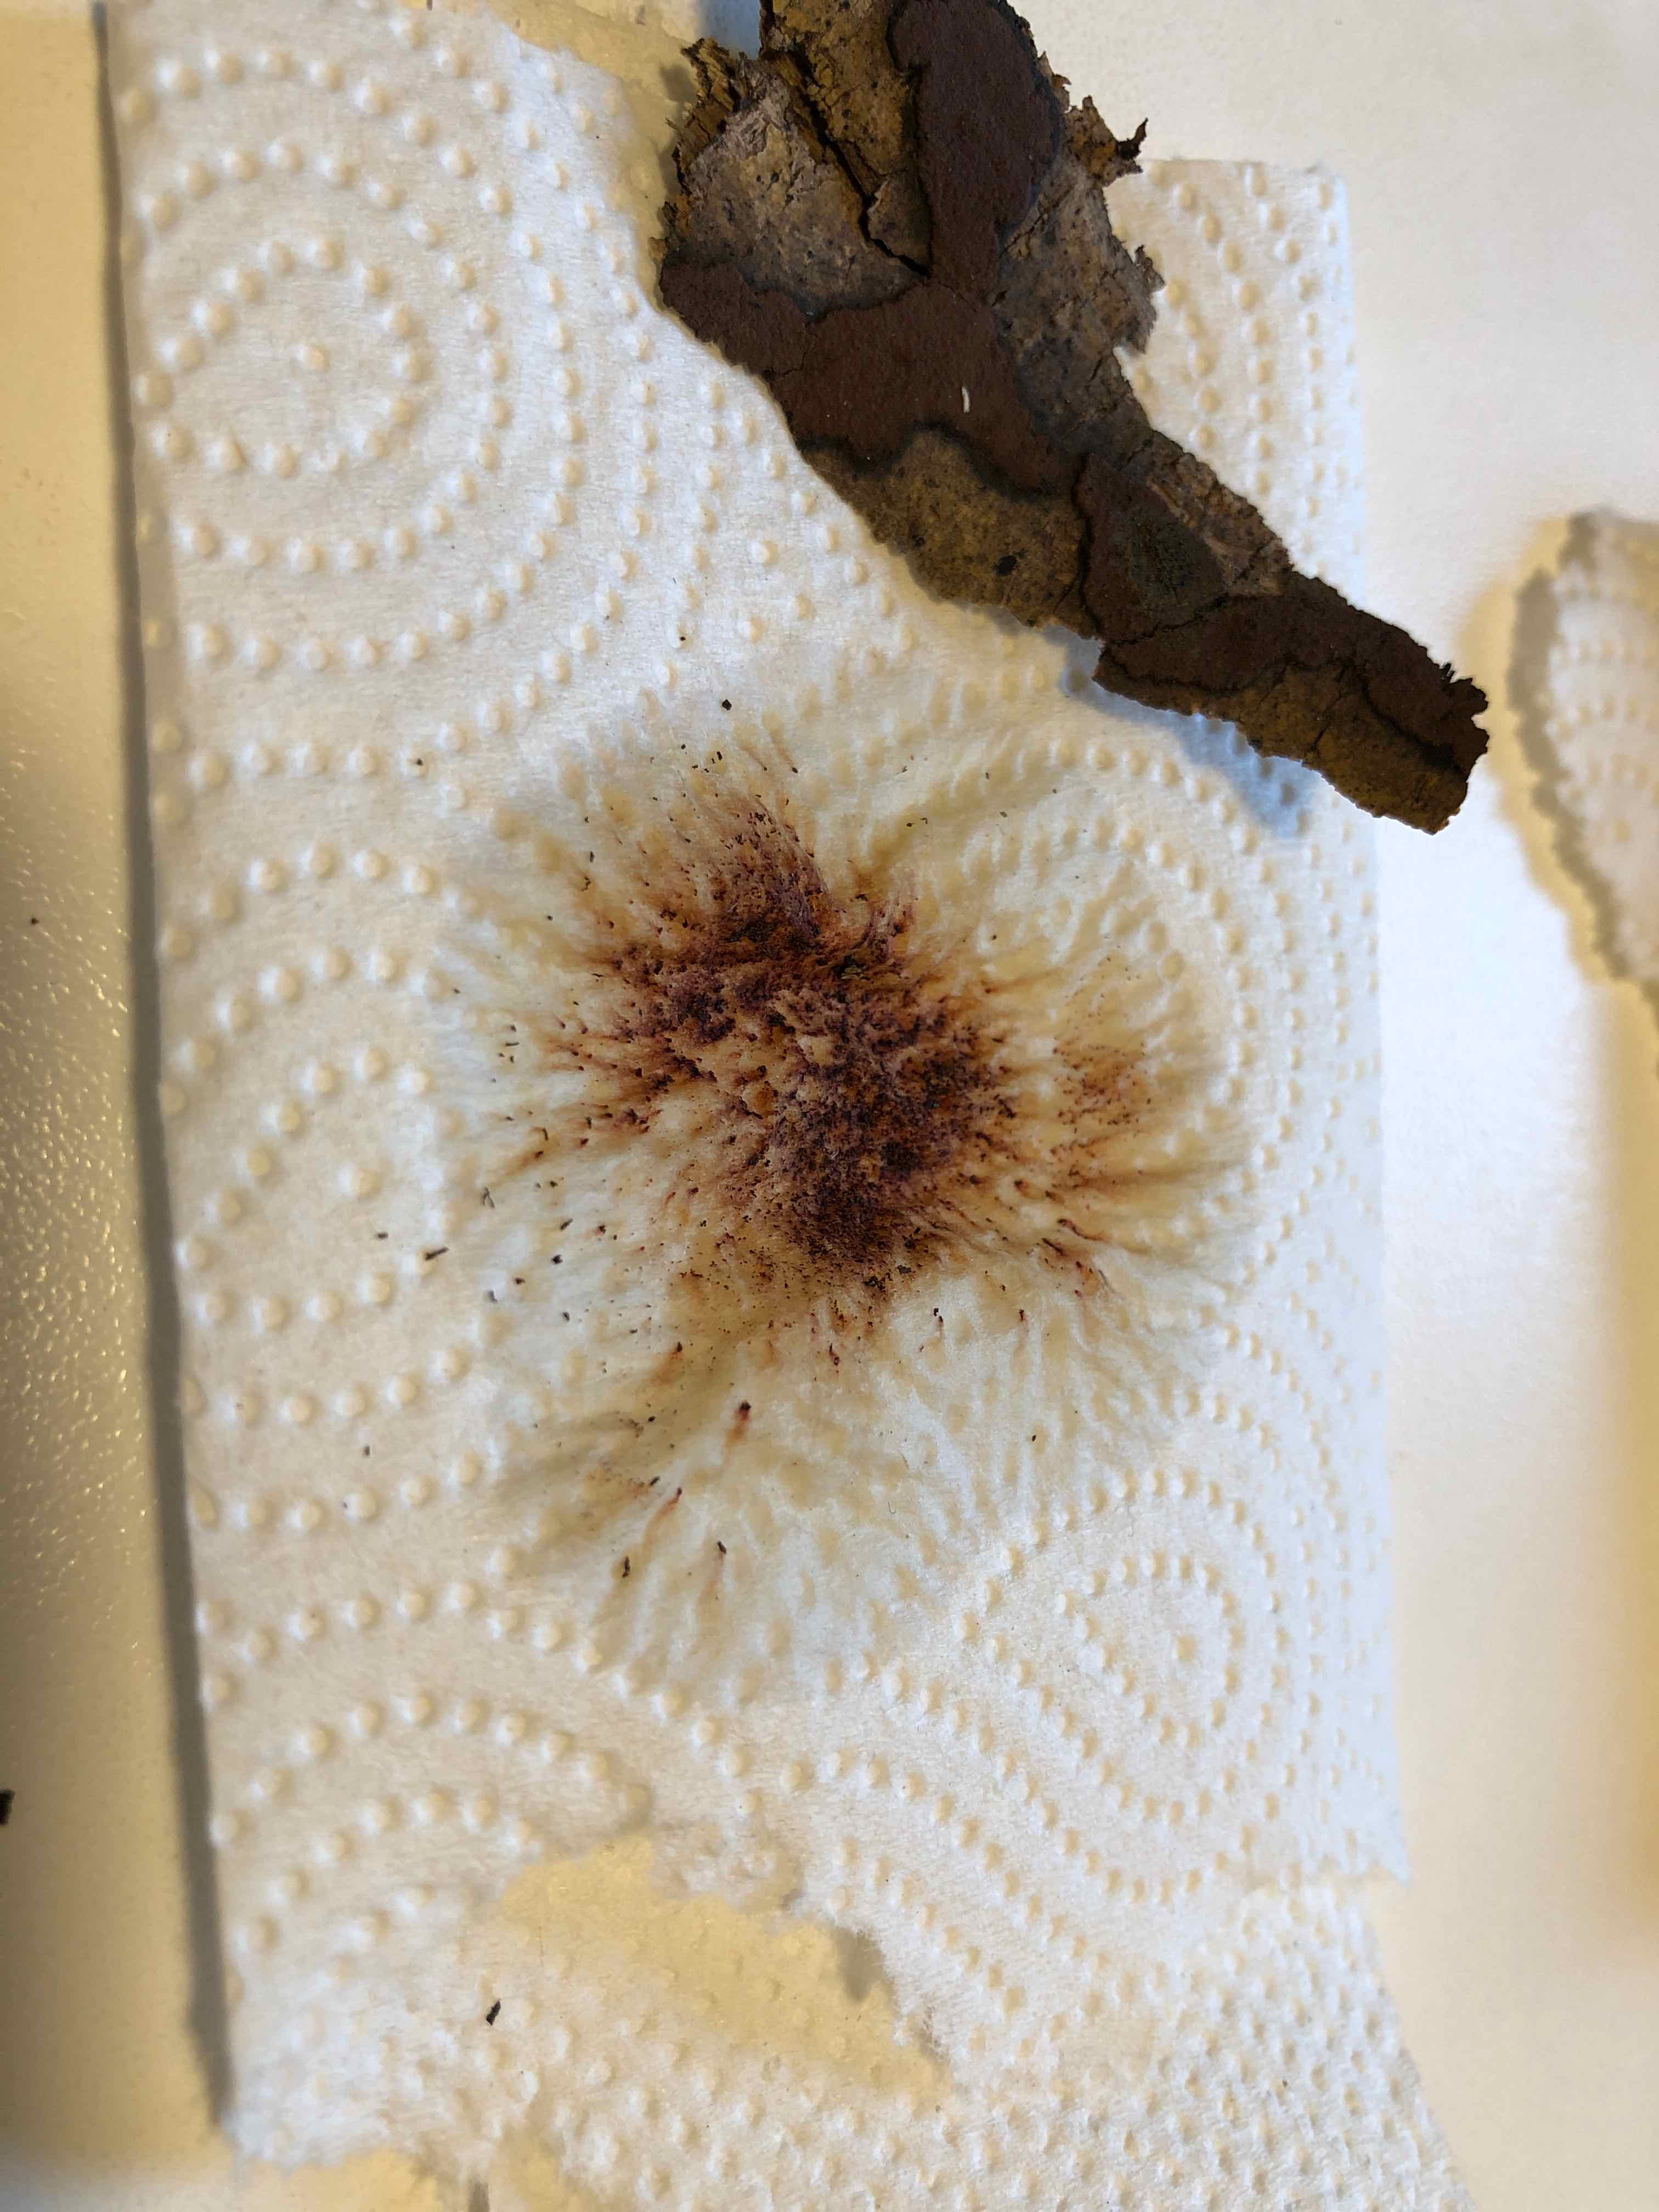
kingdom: Fungi
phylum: Ascomycota
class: Sordariomycetes
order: Xylariales
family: Hypoxylaceae
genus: Hypoxylon
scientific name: Hypoxylon petriniae
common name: nedsænket kulbær
